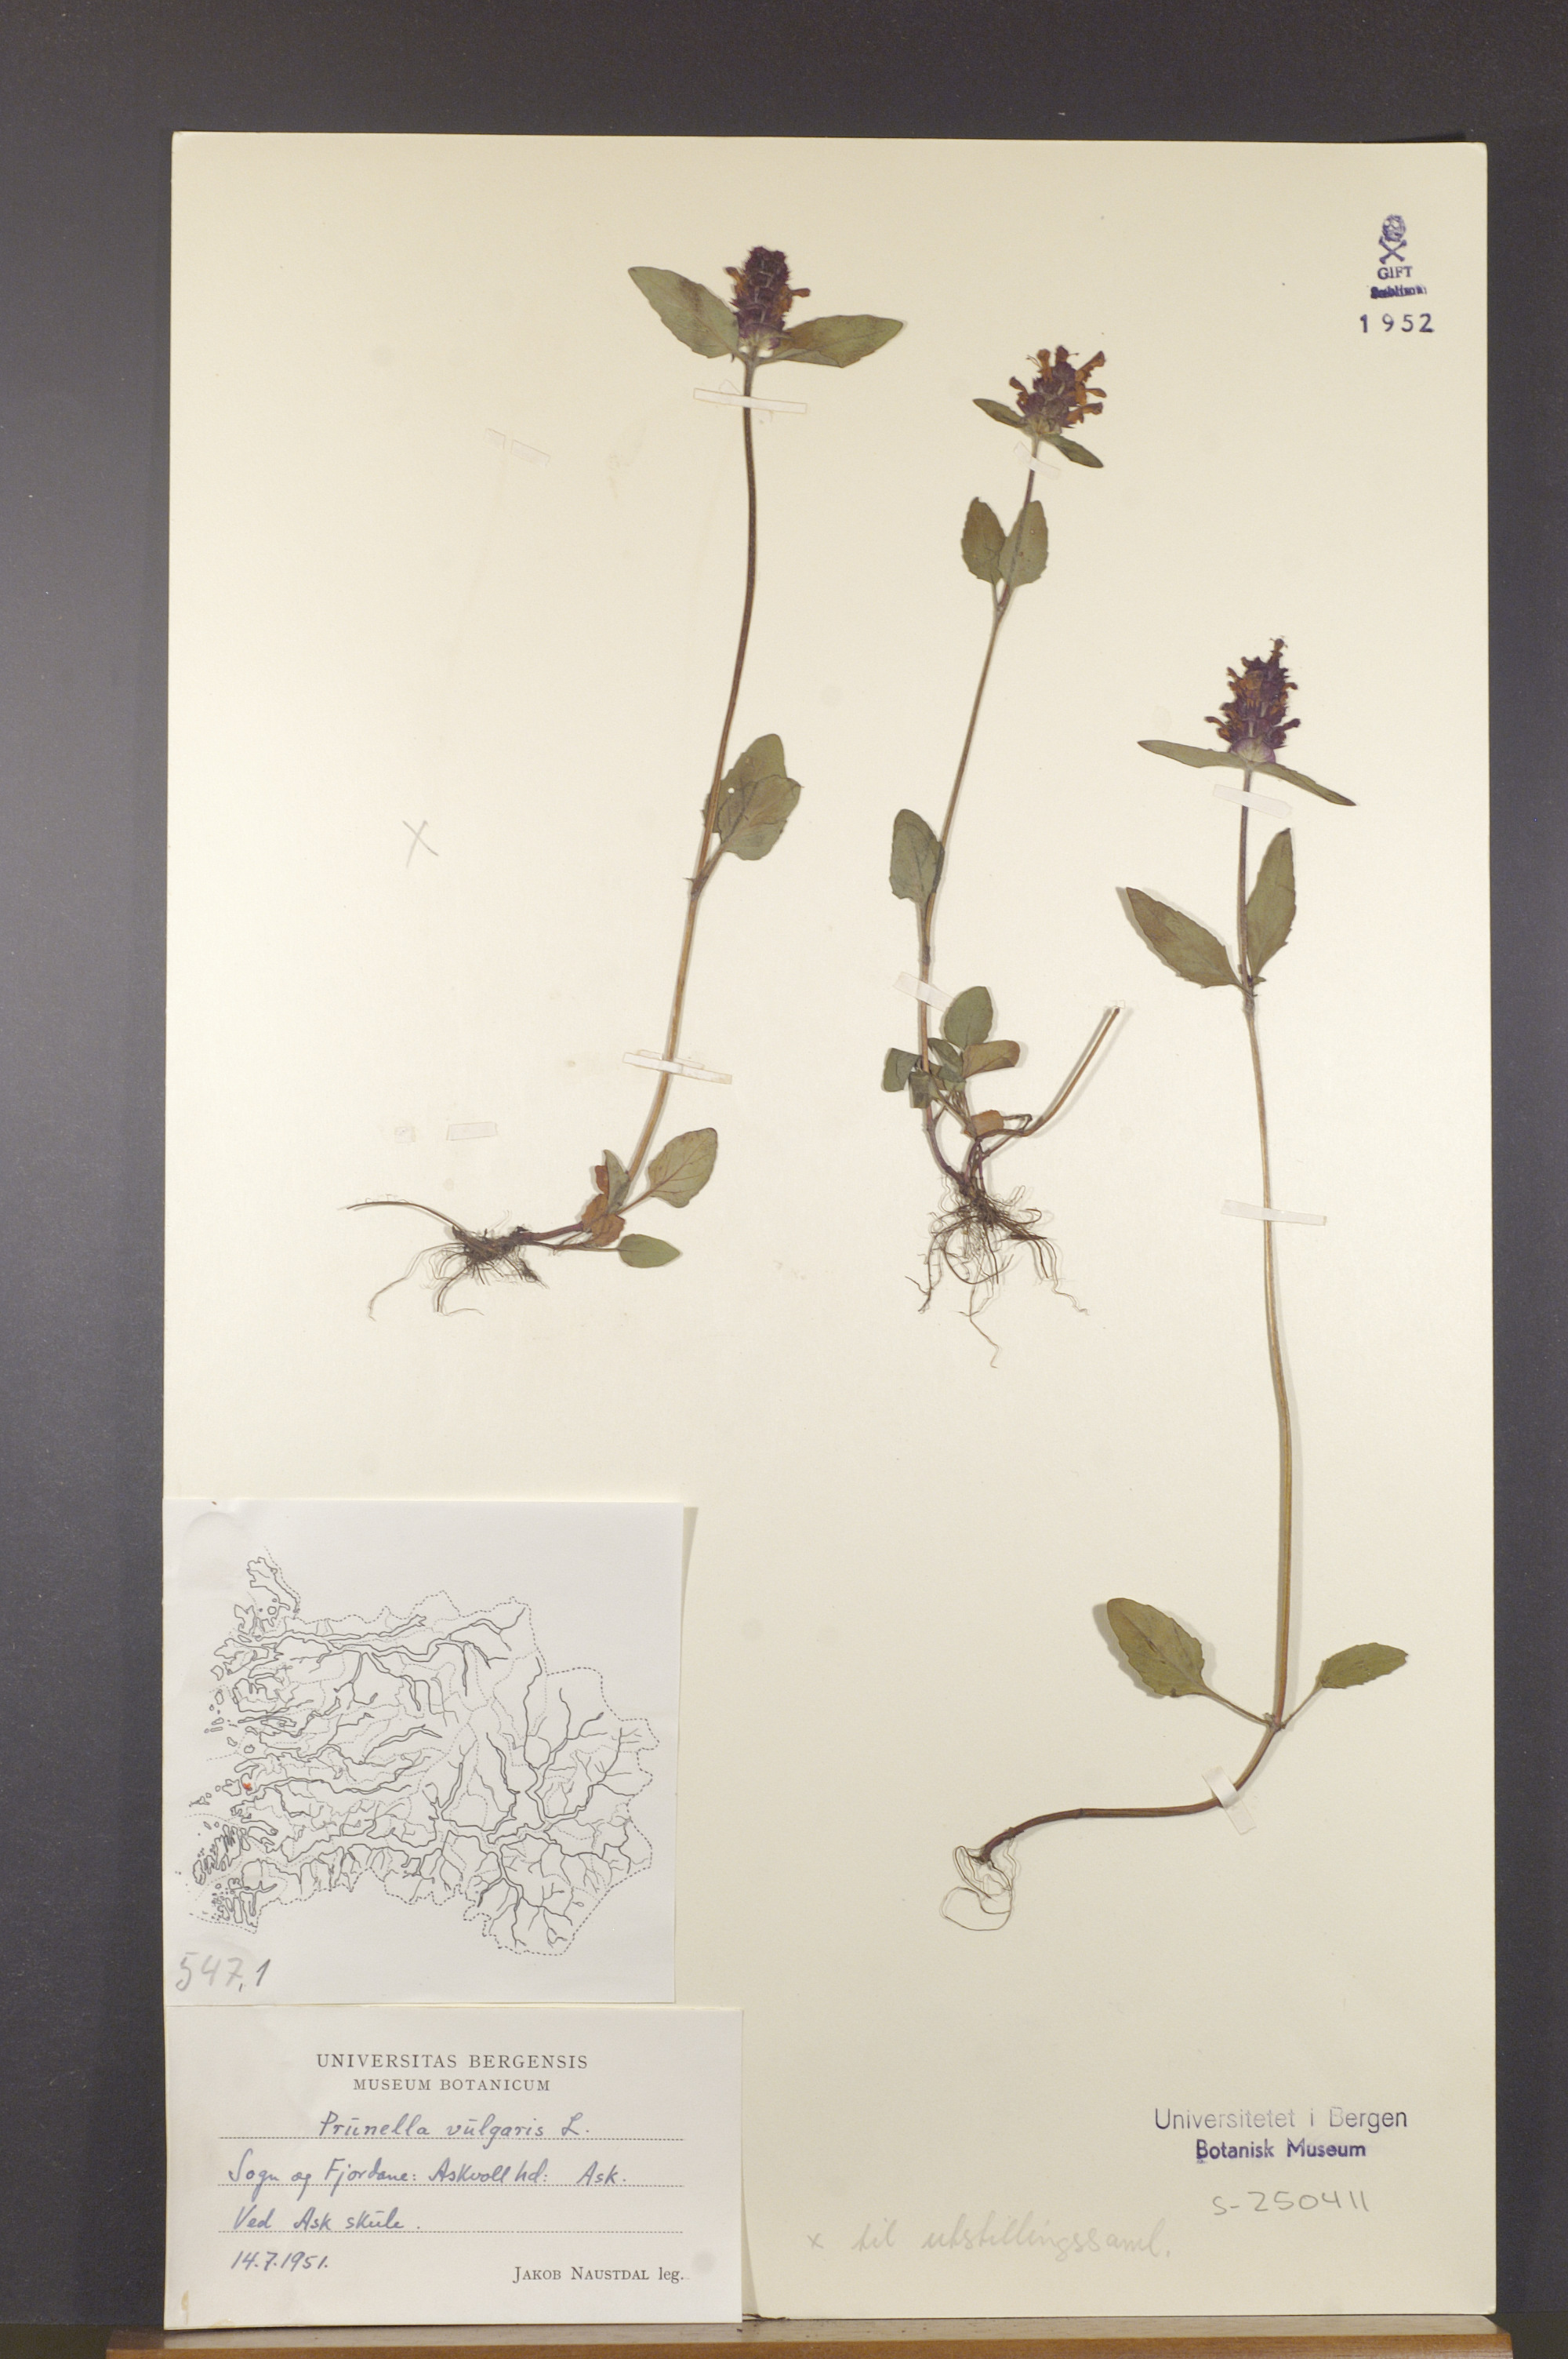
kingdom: Plantae
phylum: Tracheophyta
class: Magnoliopsida
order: Lamiales
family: Lamiaceae
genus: Prunella
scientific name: Prunella vulgaris
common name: Heal-all
